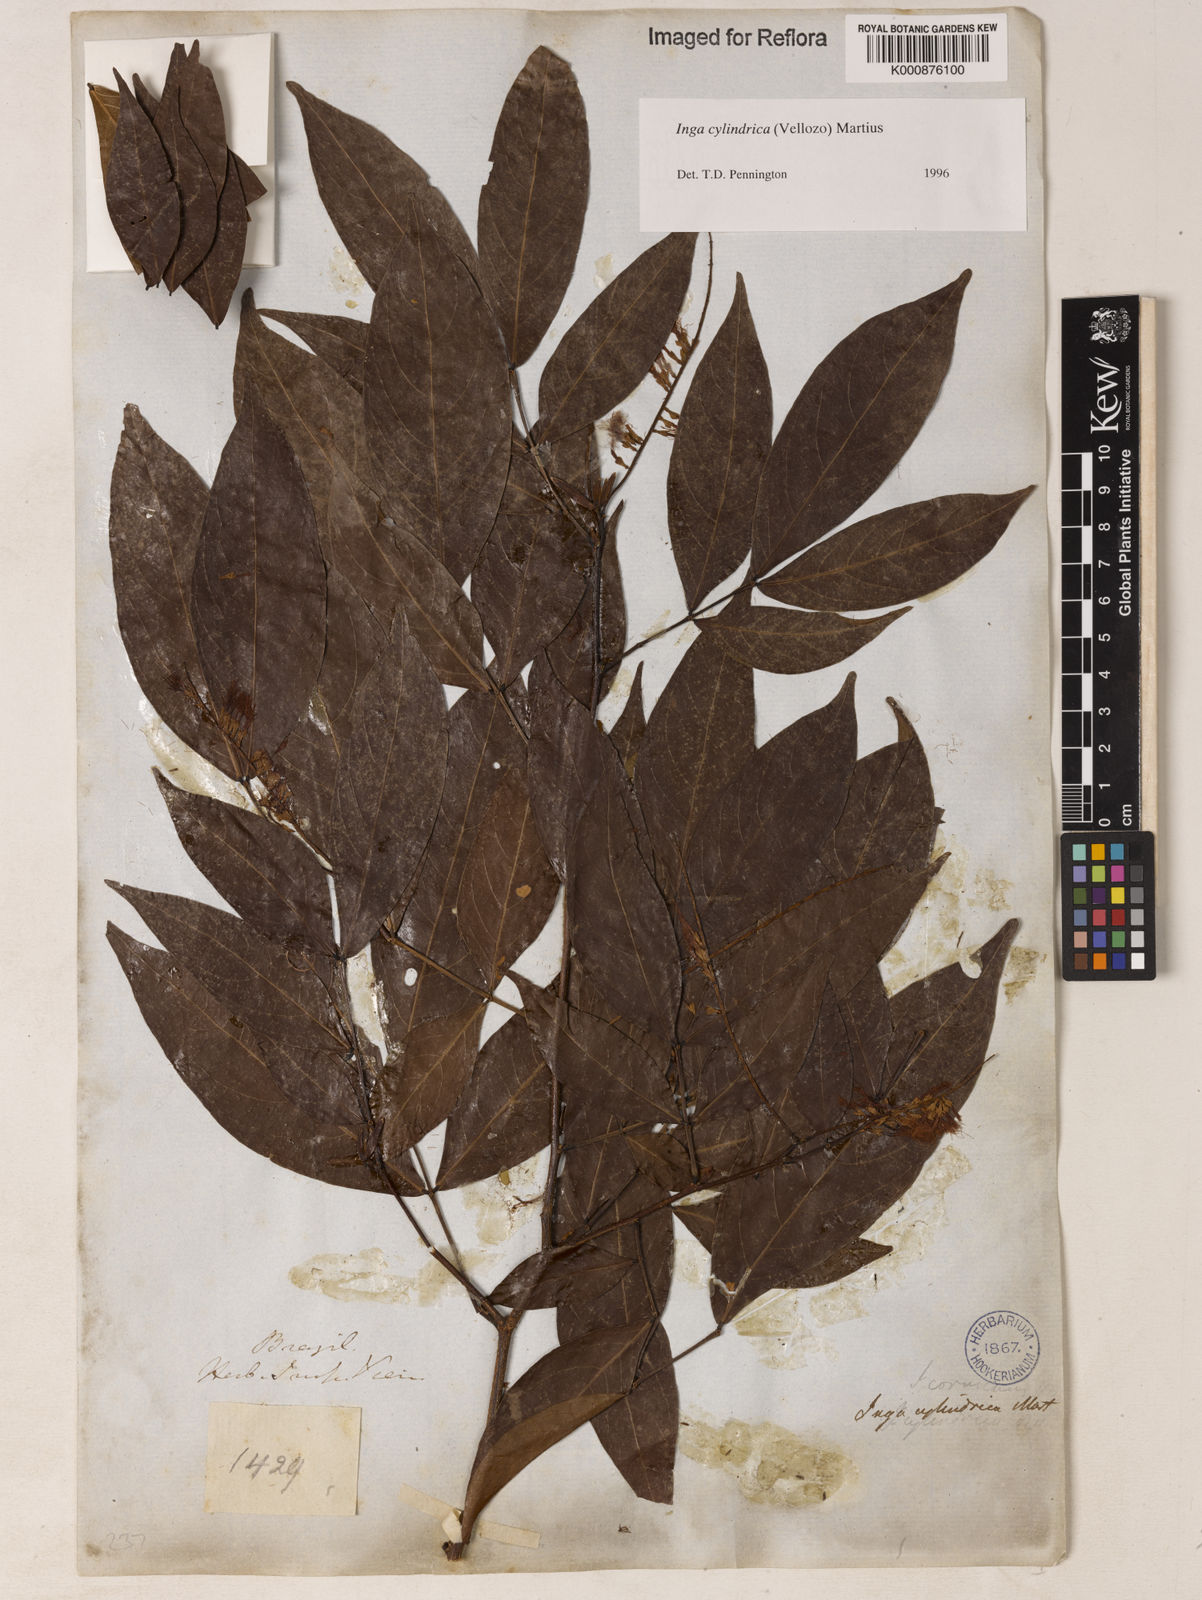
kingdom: Plantae
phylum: Tracheophyta
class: Magnoliopsida
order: Fabales
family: Fabaceae
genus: Inga
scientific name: Inga cylindrica
